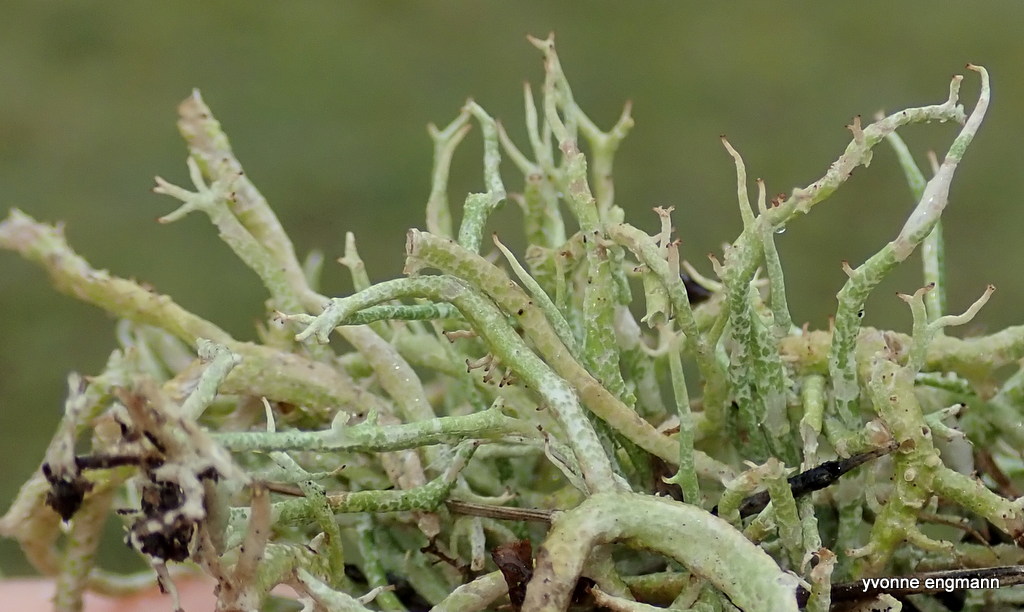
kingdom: Fungi
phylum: Ascomycota
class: Lecanoromycetes
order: Lecanorales
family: Cladoniaceae
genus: Cladonia
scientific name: Cladonia furcata
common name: kløftet bægerlav
